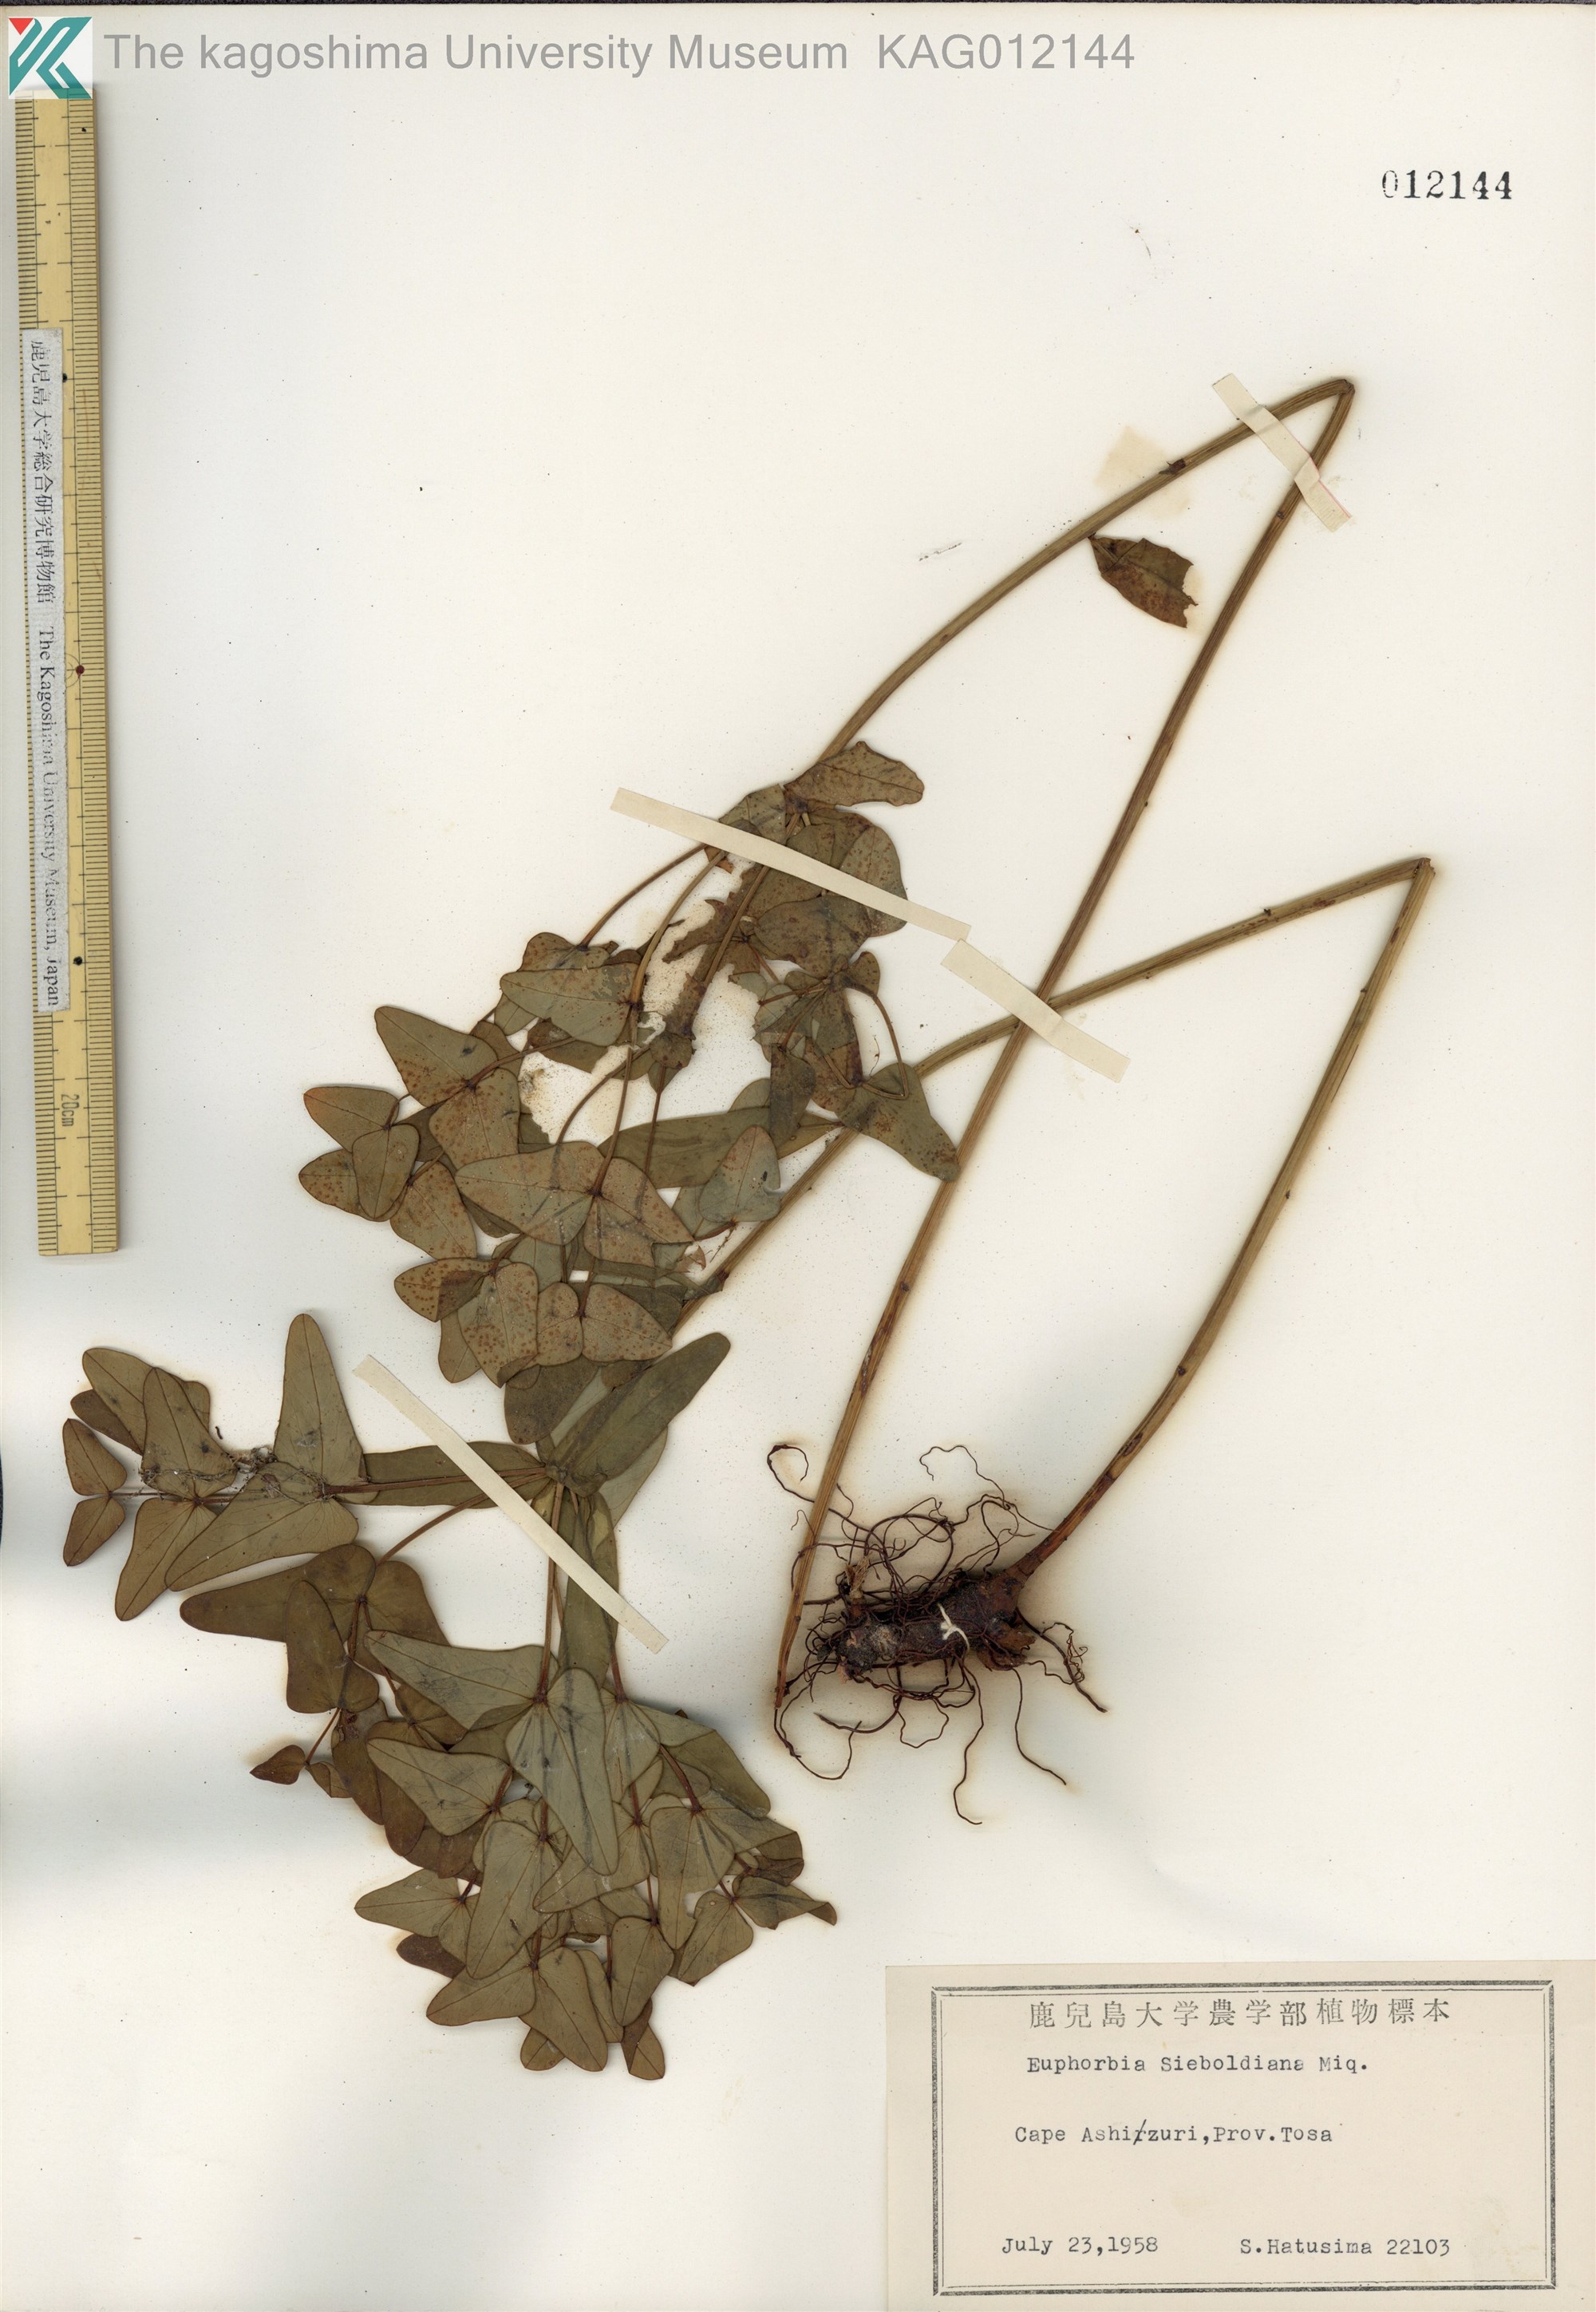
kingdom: Plantae
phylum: Tracheophyta
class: Magnoliopsida
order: Malpighiales
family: Euphorbiaceae
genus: Euphorbia
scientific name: Euphorbia sieboldiana
